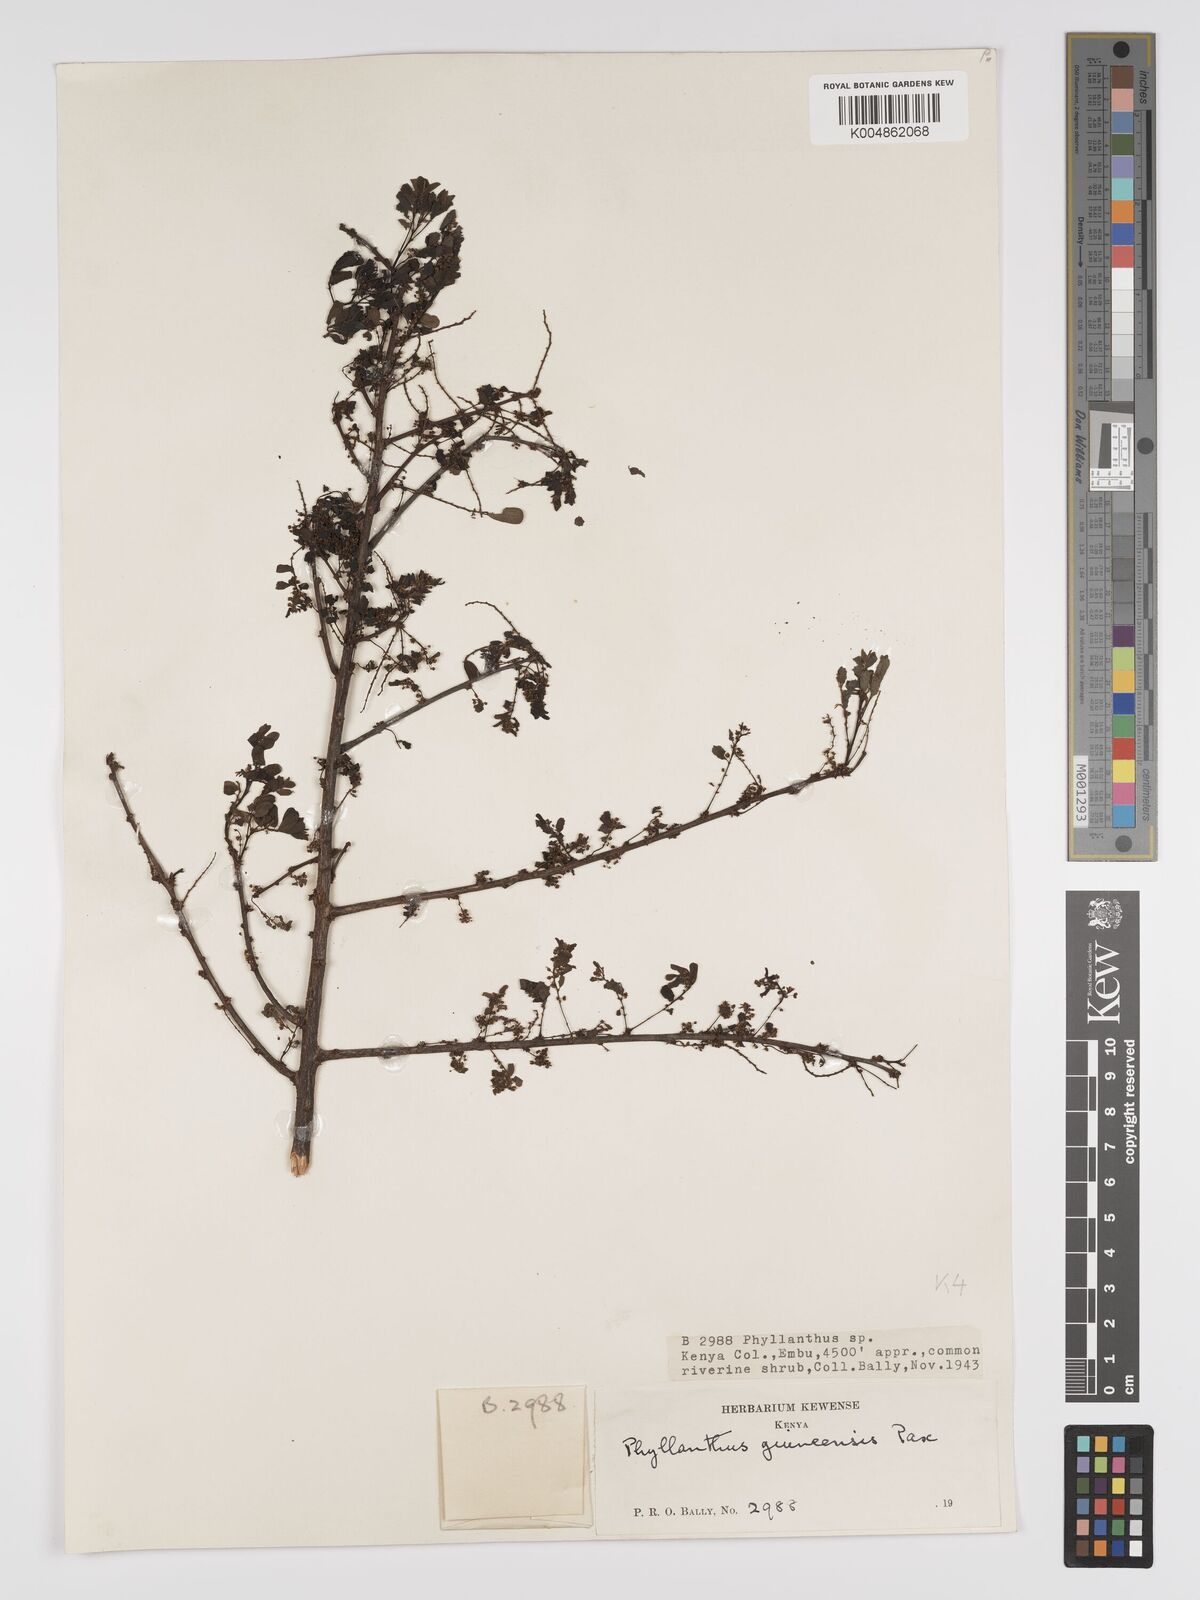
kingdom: Plantae
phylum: Tracheophyta
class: Magnoliopsida
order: Malpighiales
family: Phyllanthaceae
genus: Phyllanthus
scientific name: Phyllanthus ovalifolius
